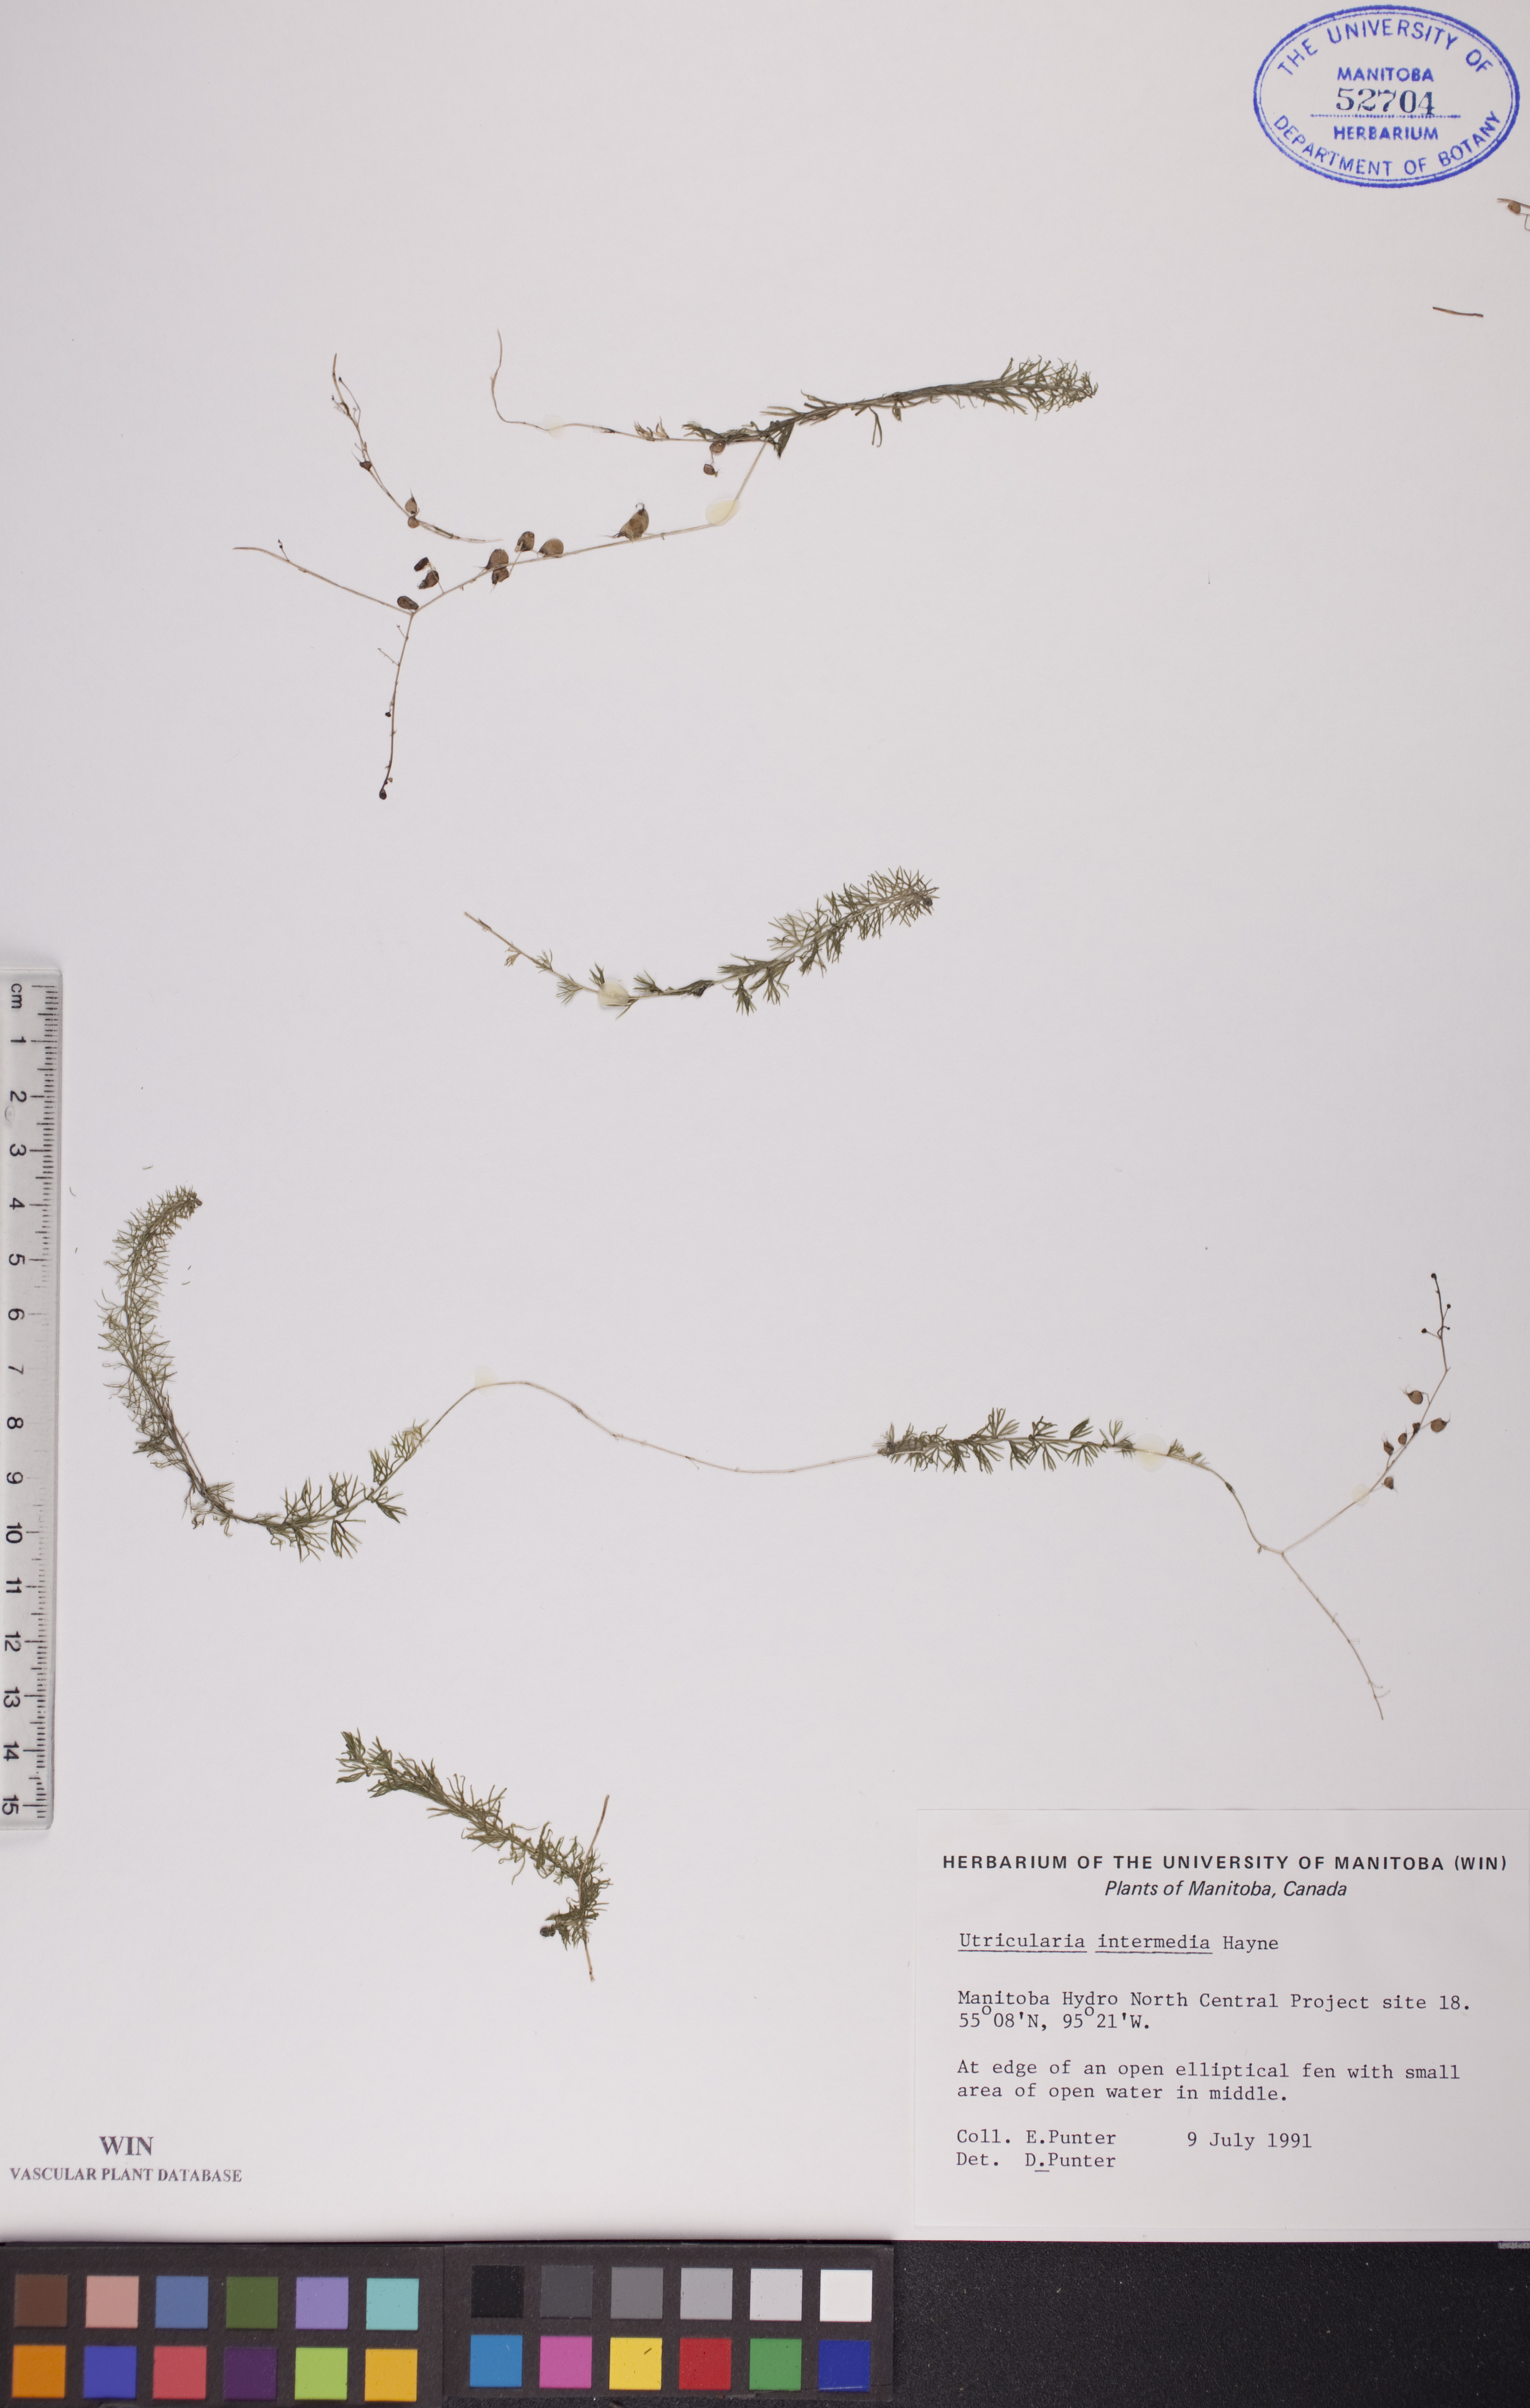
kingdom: Plantae
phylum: Tracheophyta
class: Magnoliopsida
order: Lamiales
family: Lentibulariaceae
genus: Utricularia
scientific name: Utricularia intermedia
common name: Intermediate bladderwort
